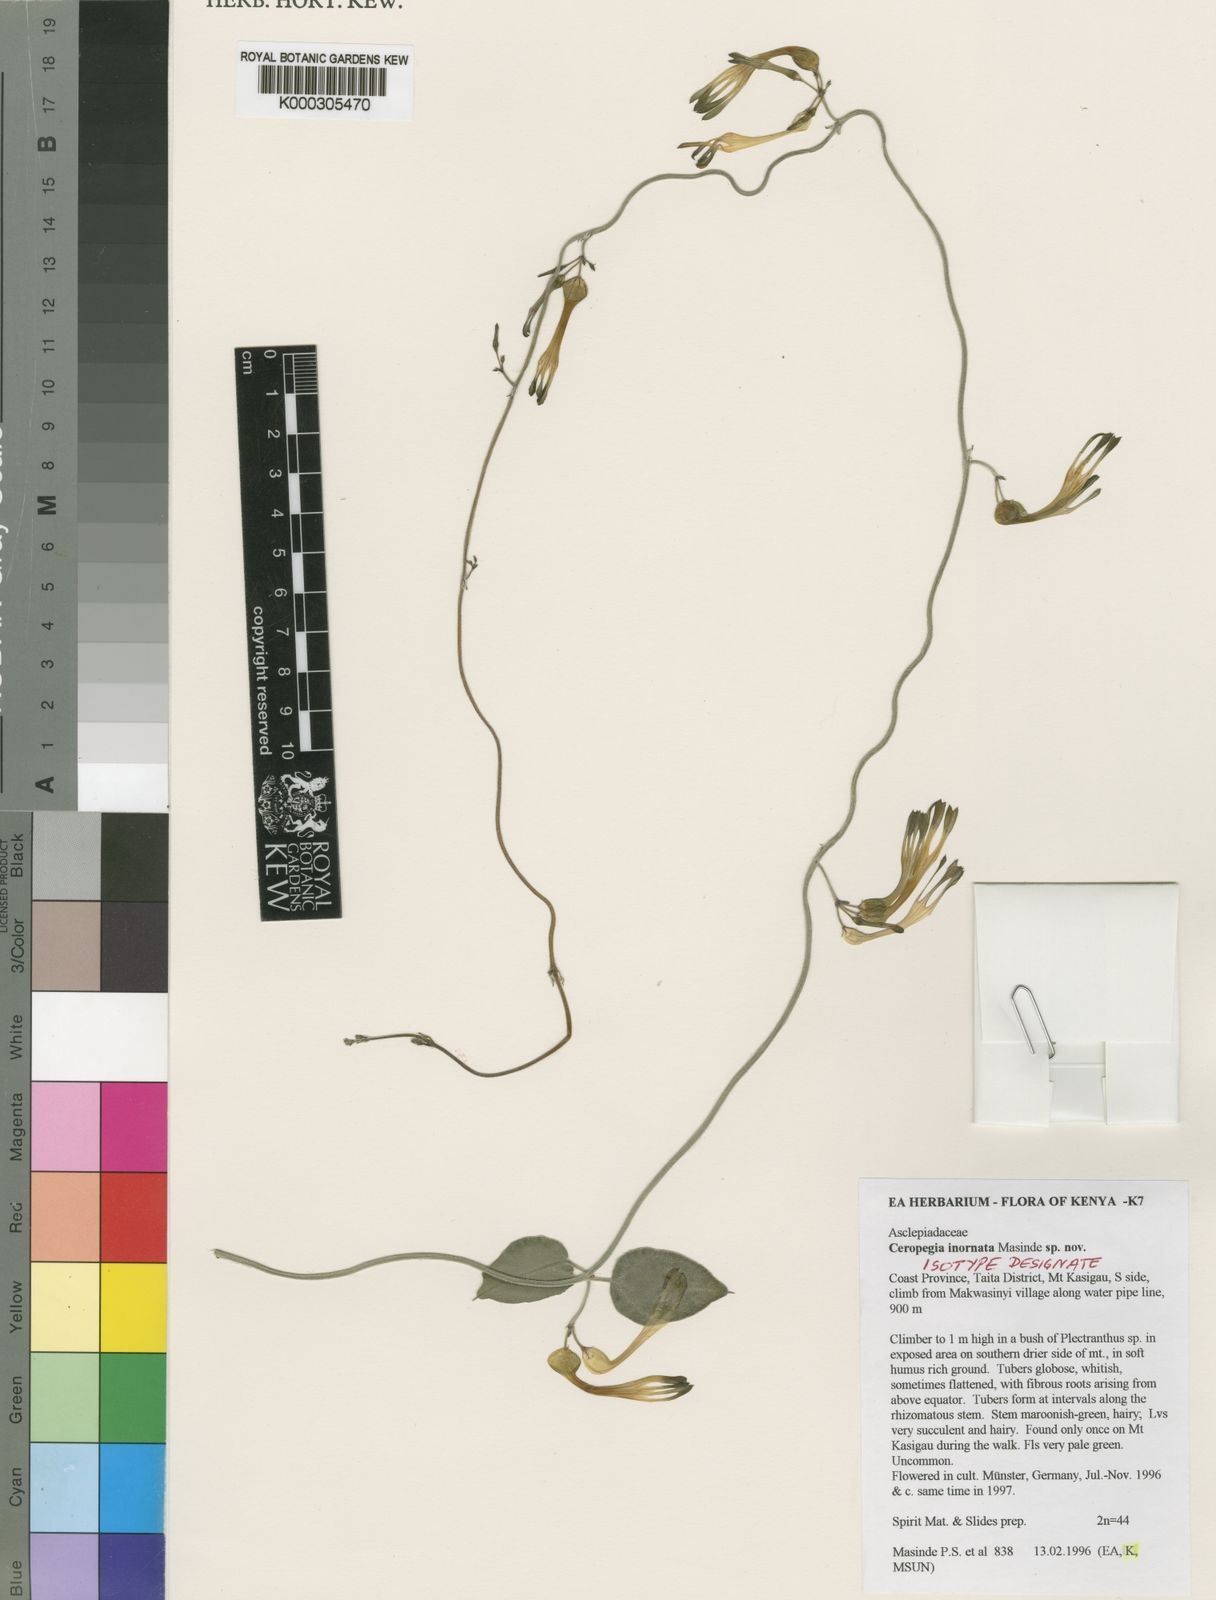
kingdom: Plantae
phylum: Tracheophyta
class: Magnoliopsida
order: Gentianales
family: Apocynaceae
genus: Ceropegia
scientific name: Ceropegia inornata
